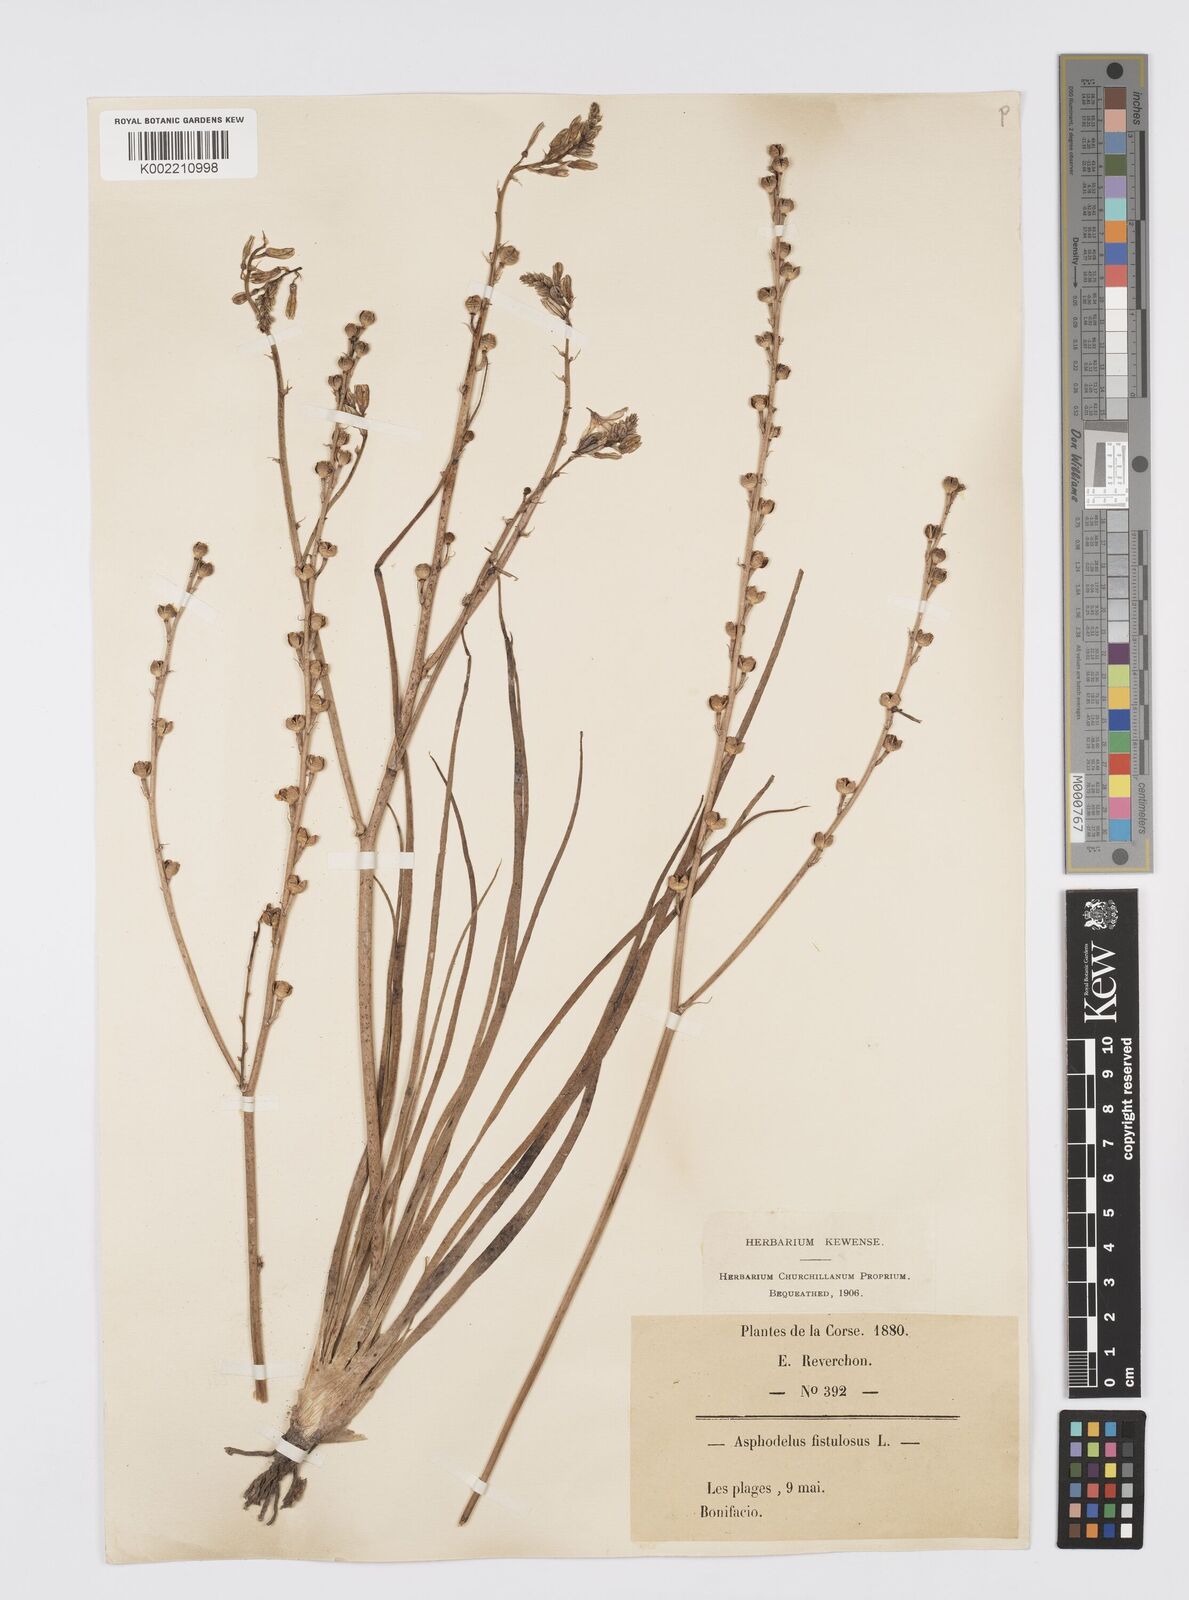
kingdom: Plantae
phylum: Tracheophyta
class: Liliopsida
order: Asparagales
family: Asphodelaceae
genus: Asphodelus
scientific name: Asphodelus fistulosus
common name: Onionweed
